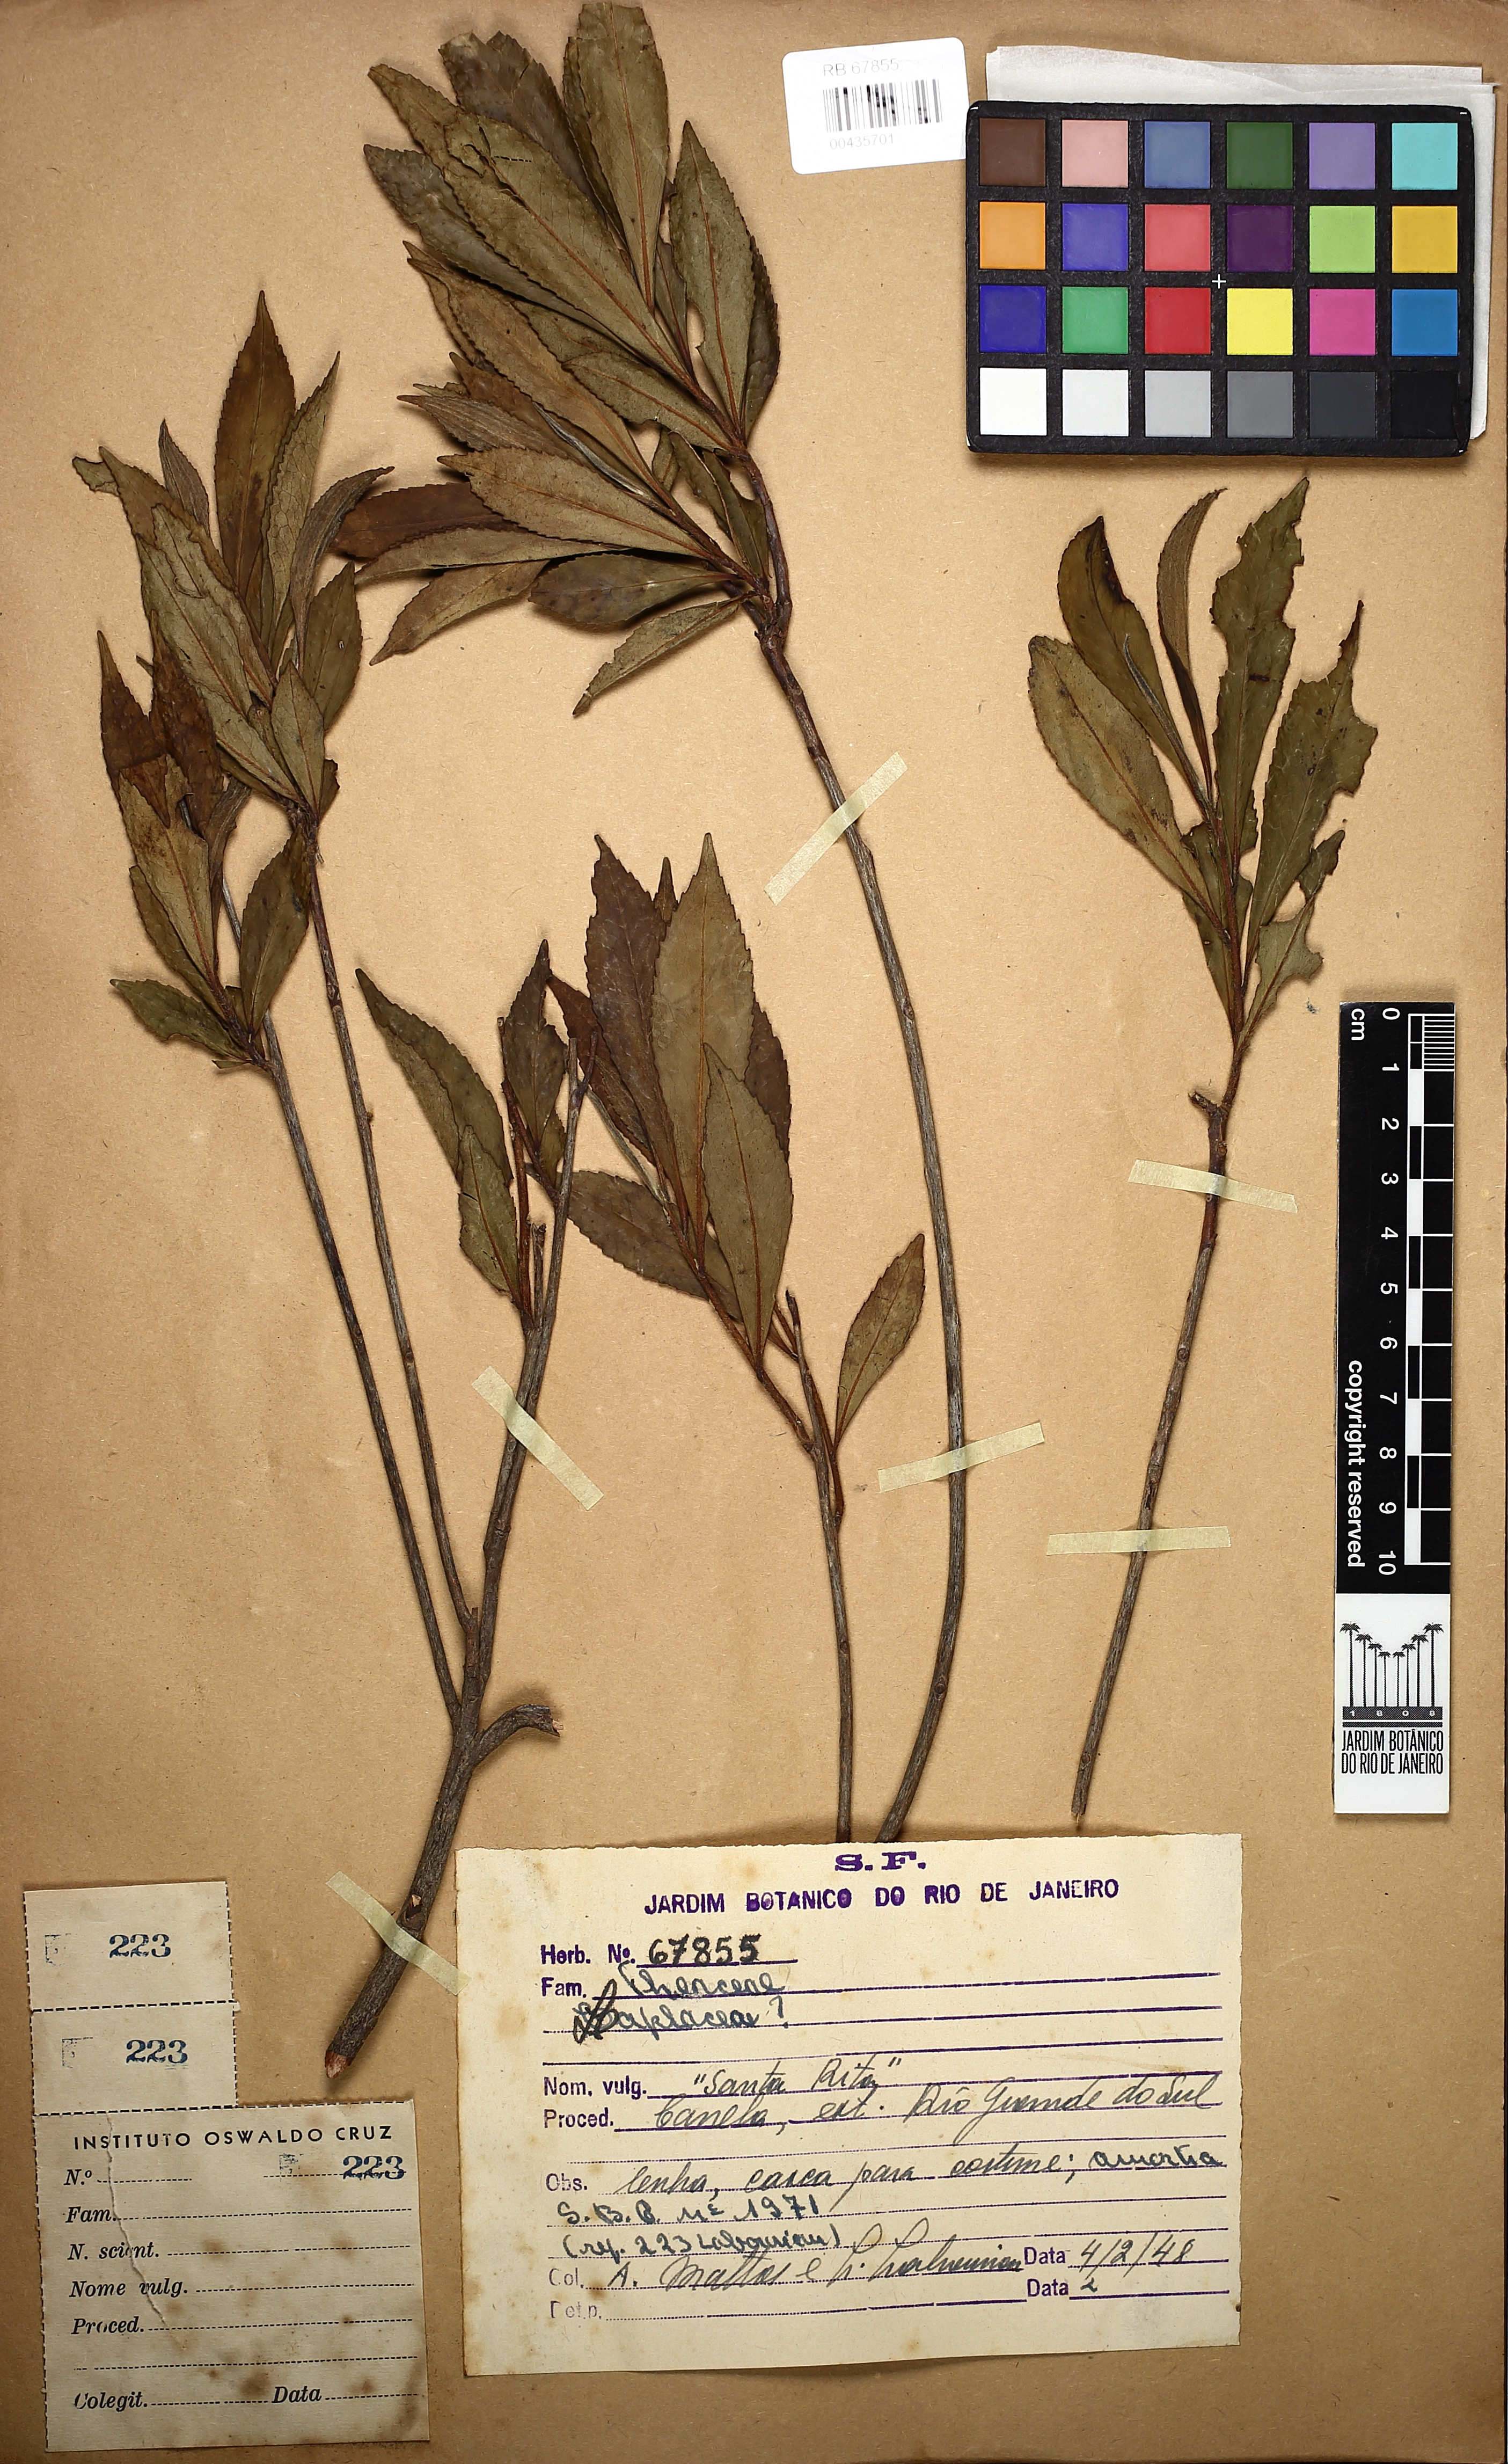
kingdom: Plantae
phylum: Tracheophyta
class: Magnoliopsida
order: Ericales
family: Theaceae
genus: Gordonia
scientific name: Gordonia
